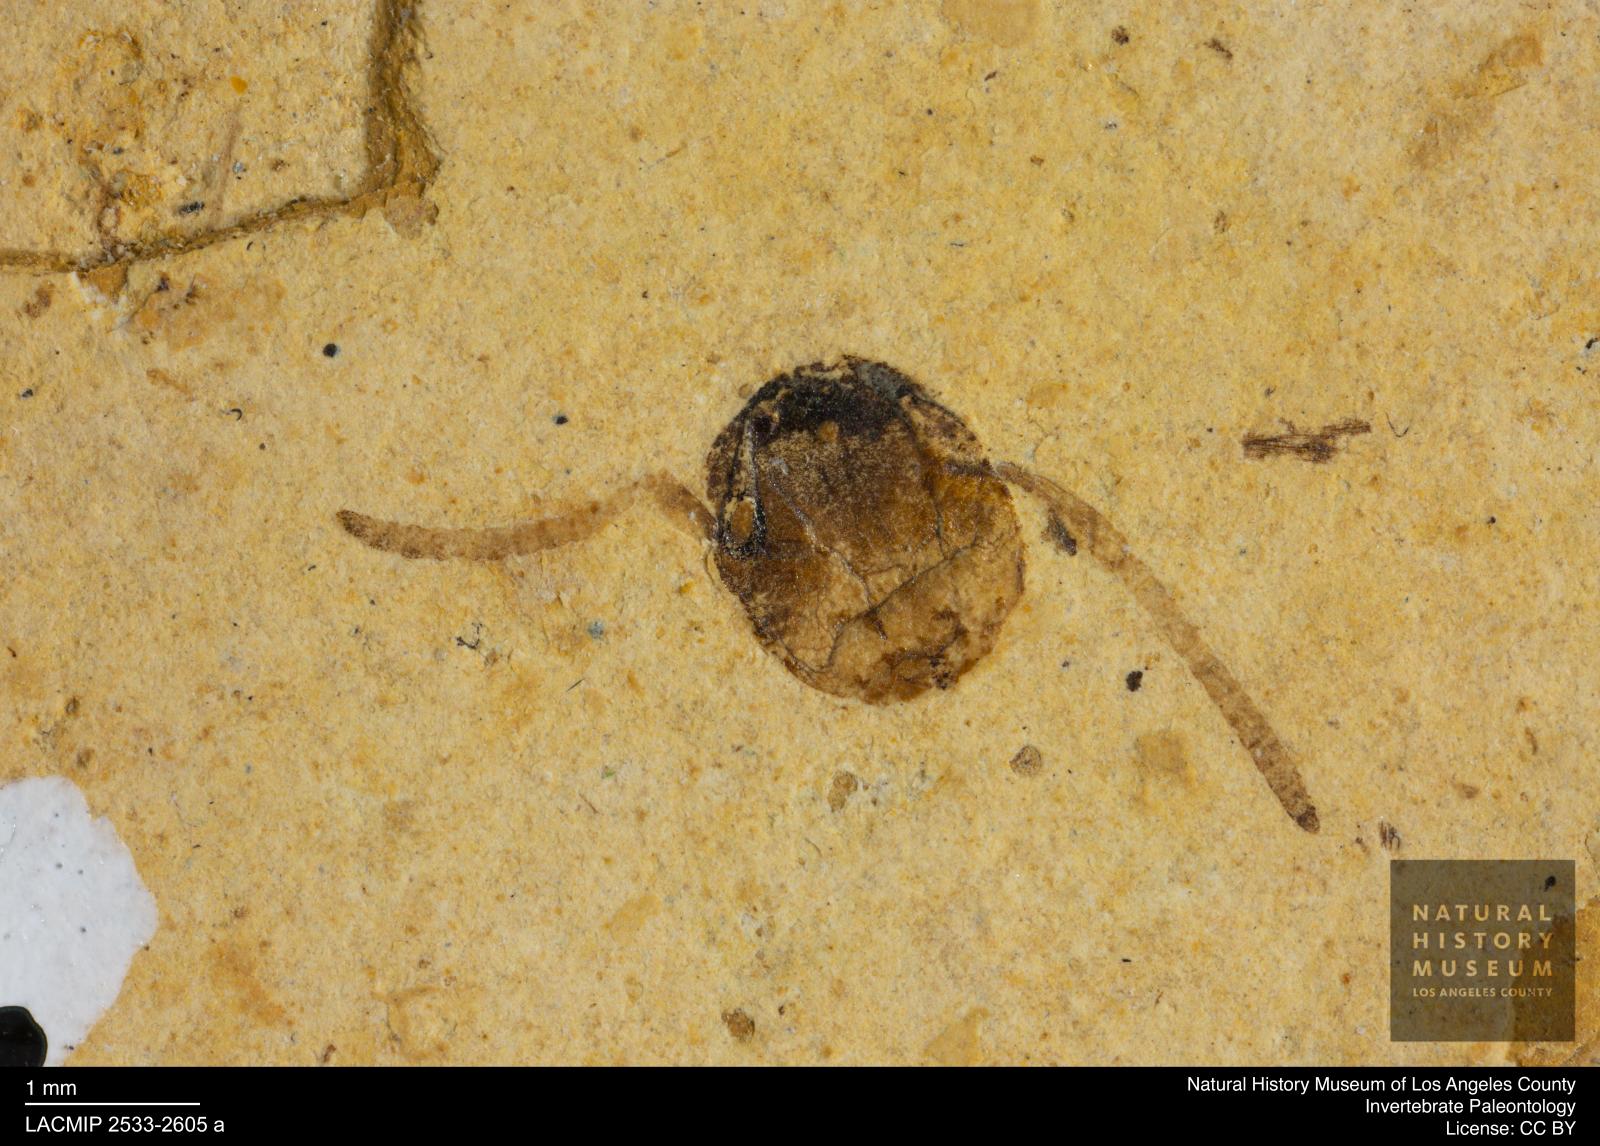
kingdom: Animalia
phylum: Arthropoda
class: Insecta
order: Hymenoptera
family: Formicidae
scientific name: Formicidae
